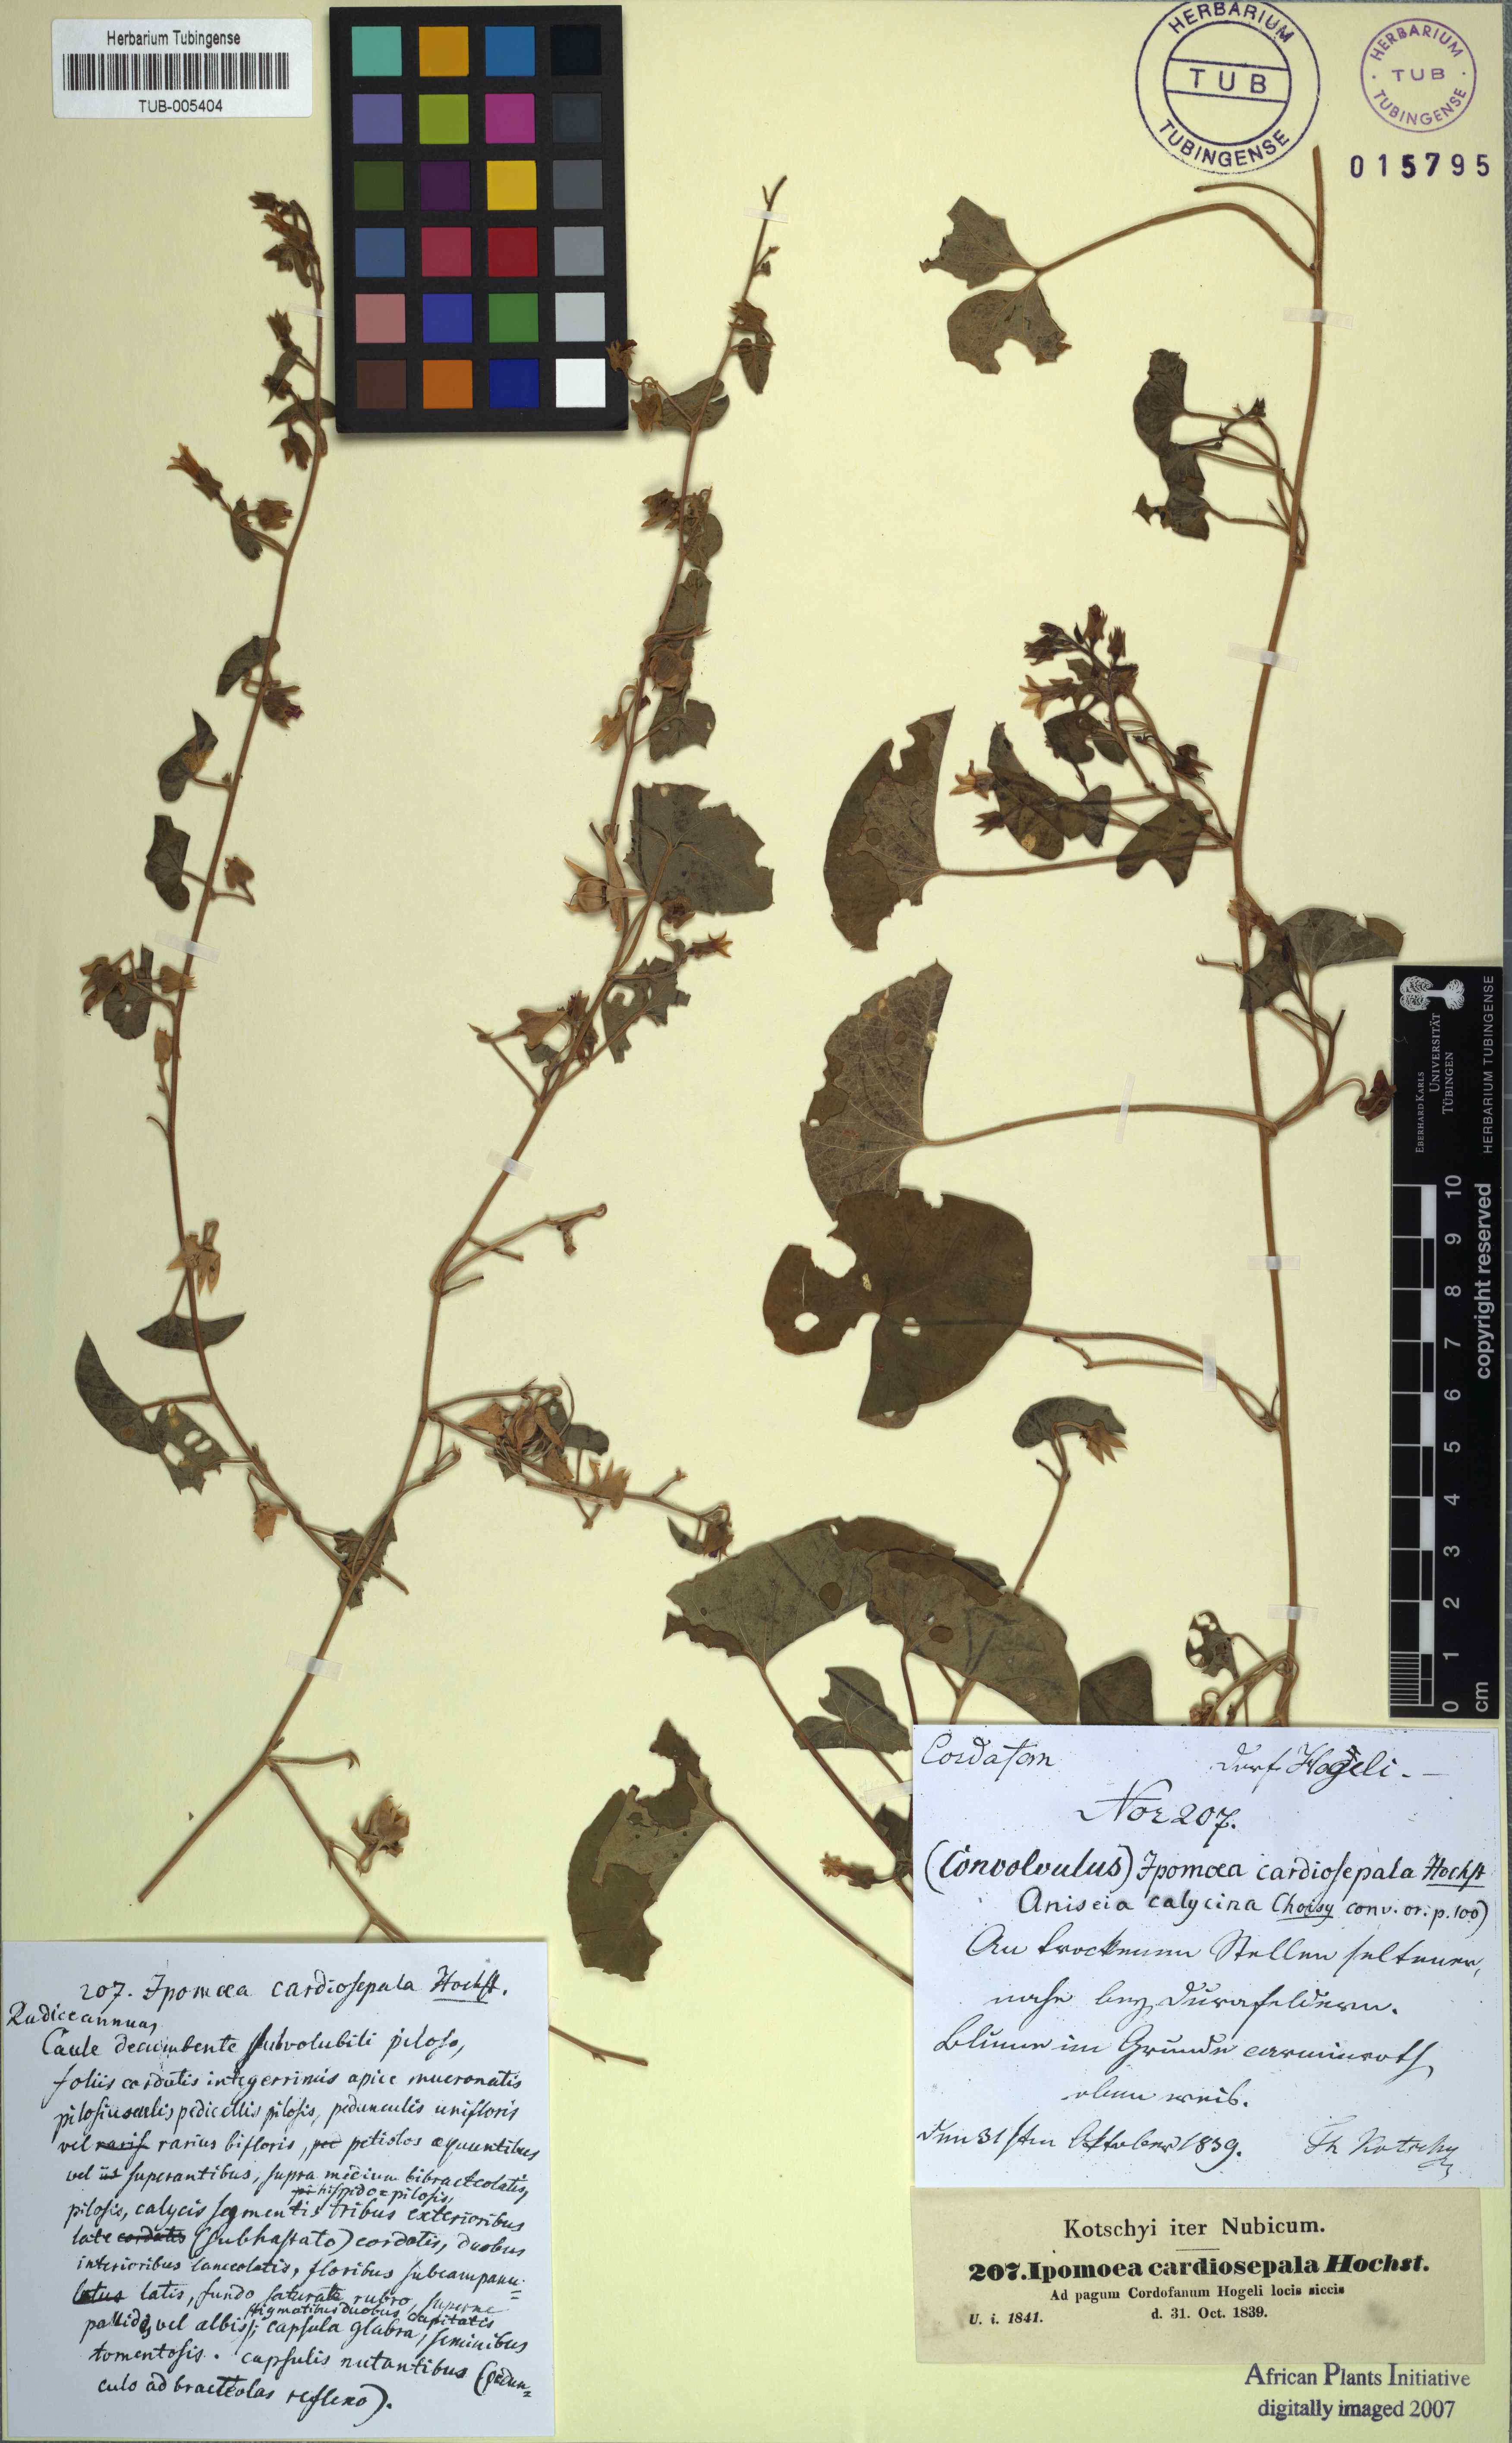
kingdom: Plantae
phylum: Tracheophyta
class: Magnoliopsida
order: Solanales
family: Convolvulaceae
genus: Ipomoea
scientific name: Ipomoea biflora
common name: Bellvine
